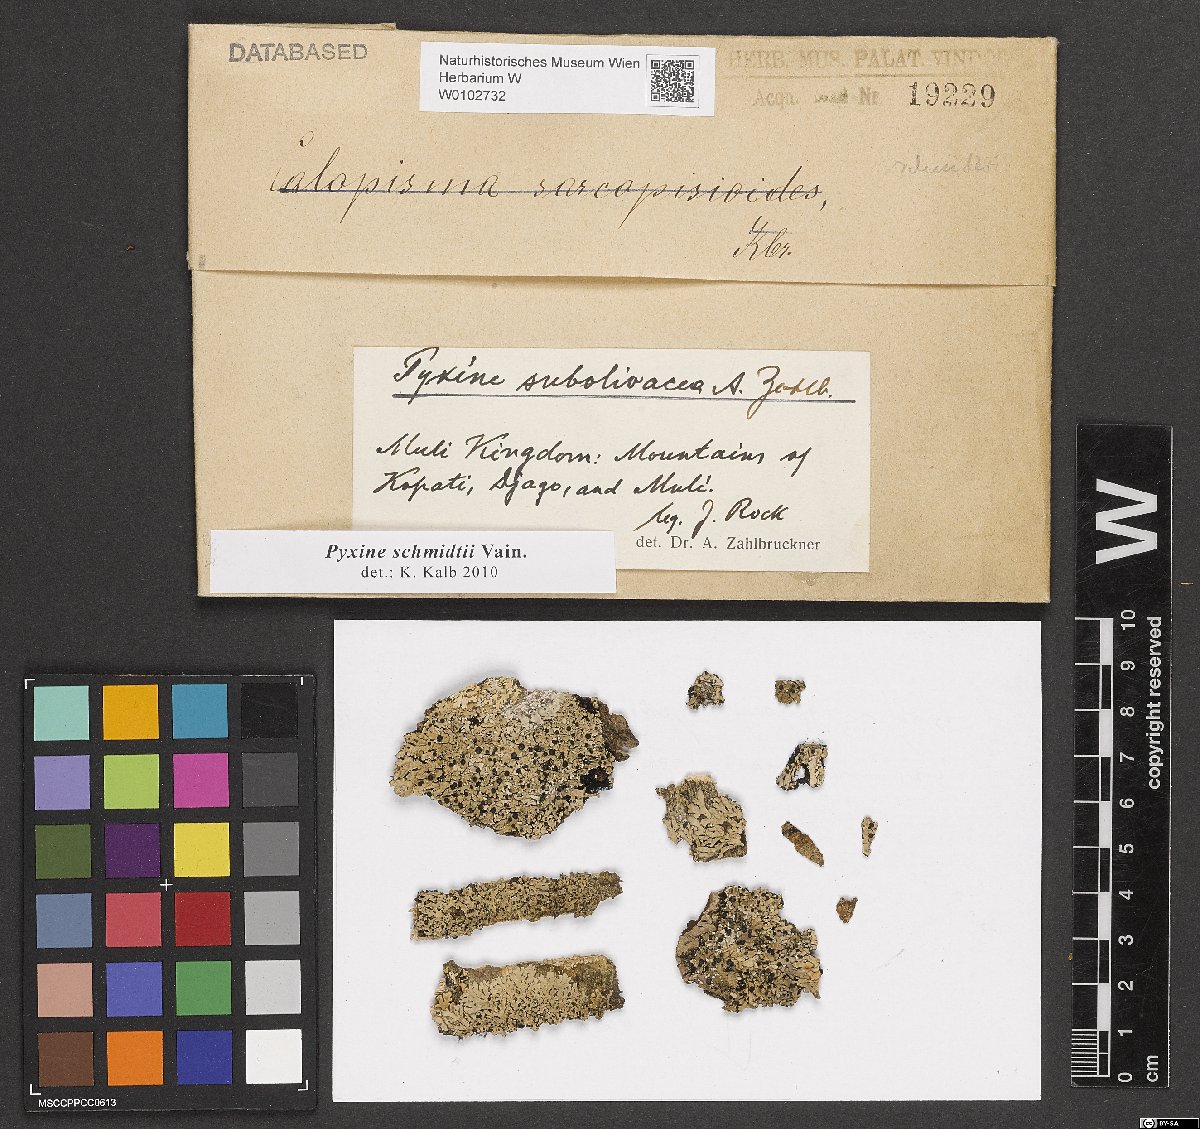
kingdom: Fungi
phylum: Ascomycota
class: Lecanoromycetes
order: Caliciales
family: Caliciaceae
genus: Pyxine
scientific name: Pyxine schmidtii
